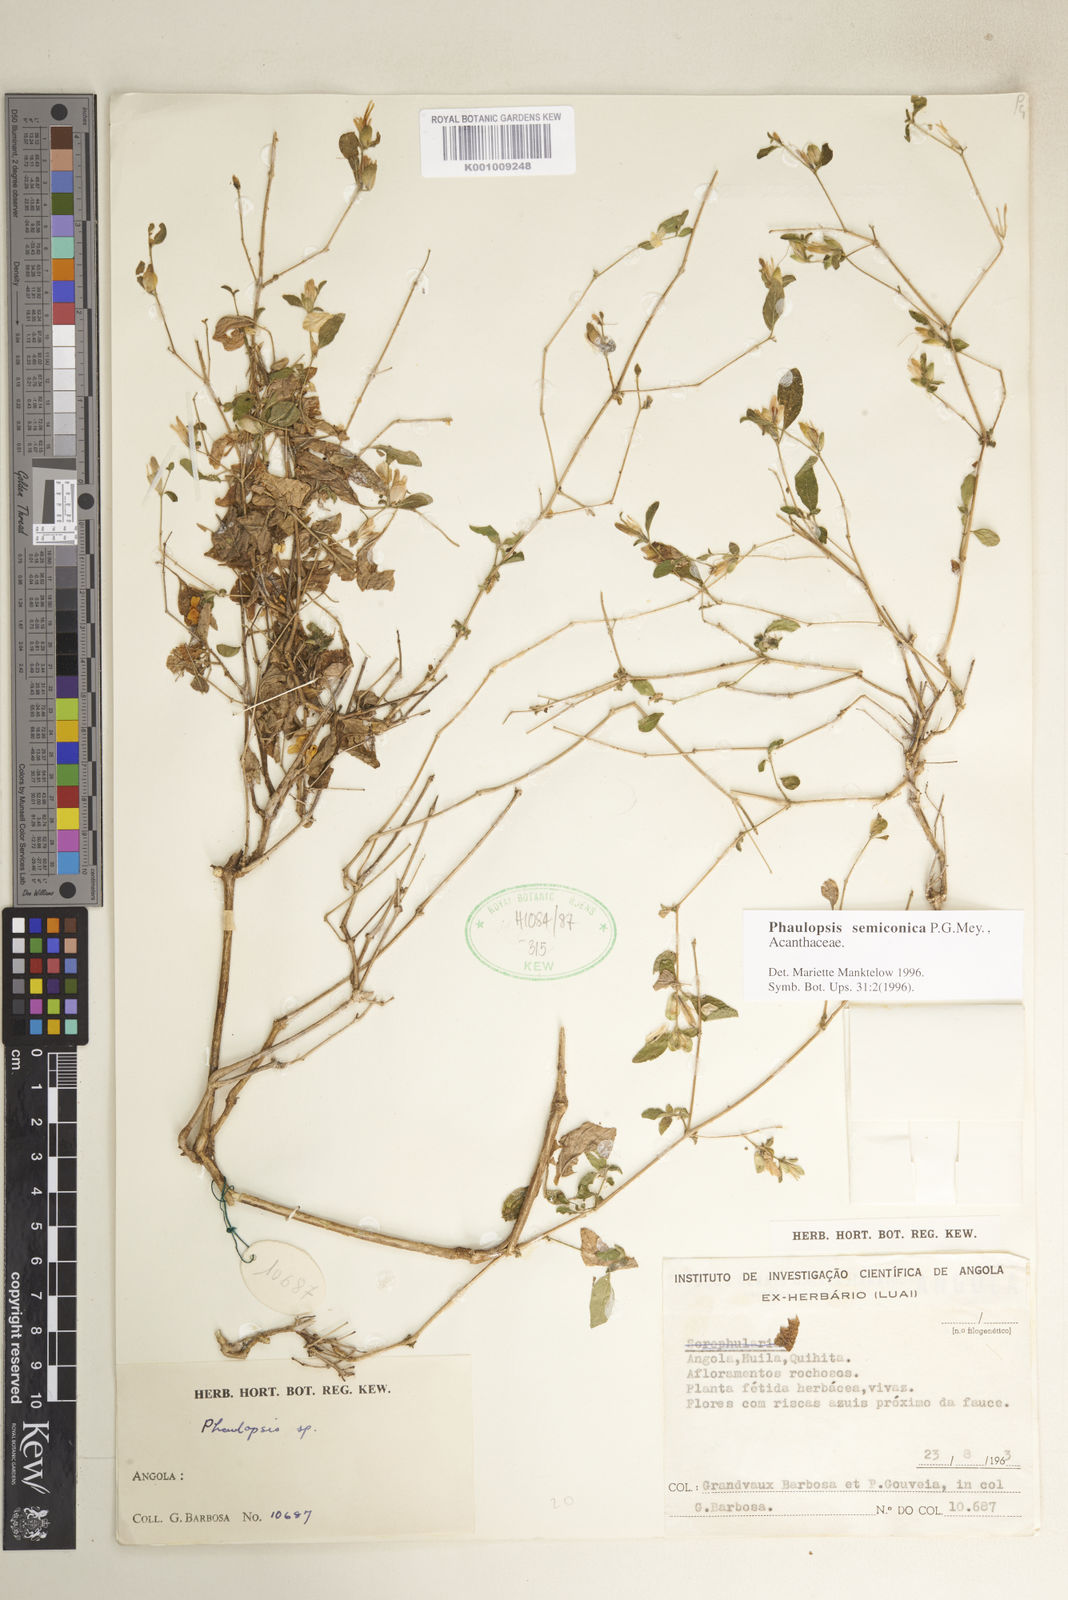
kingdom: Plantae
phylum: Tracheophyta
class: Magnoliopsida
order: Lamiales
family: Acanthaceae
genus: Phaulopsis
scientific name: Phaulopsis semiconica
